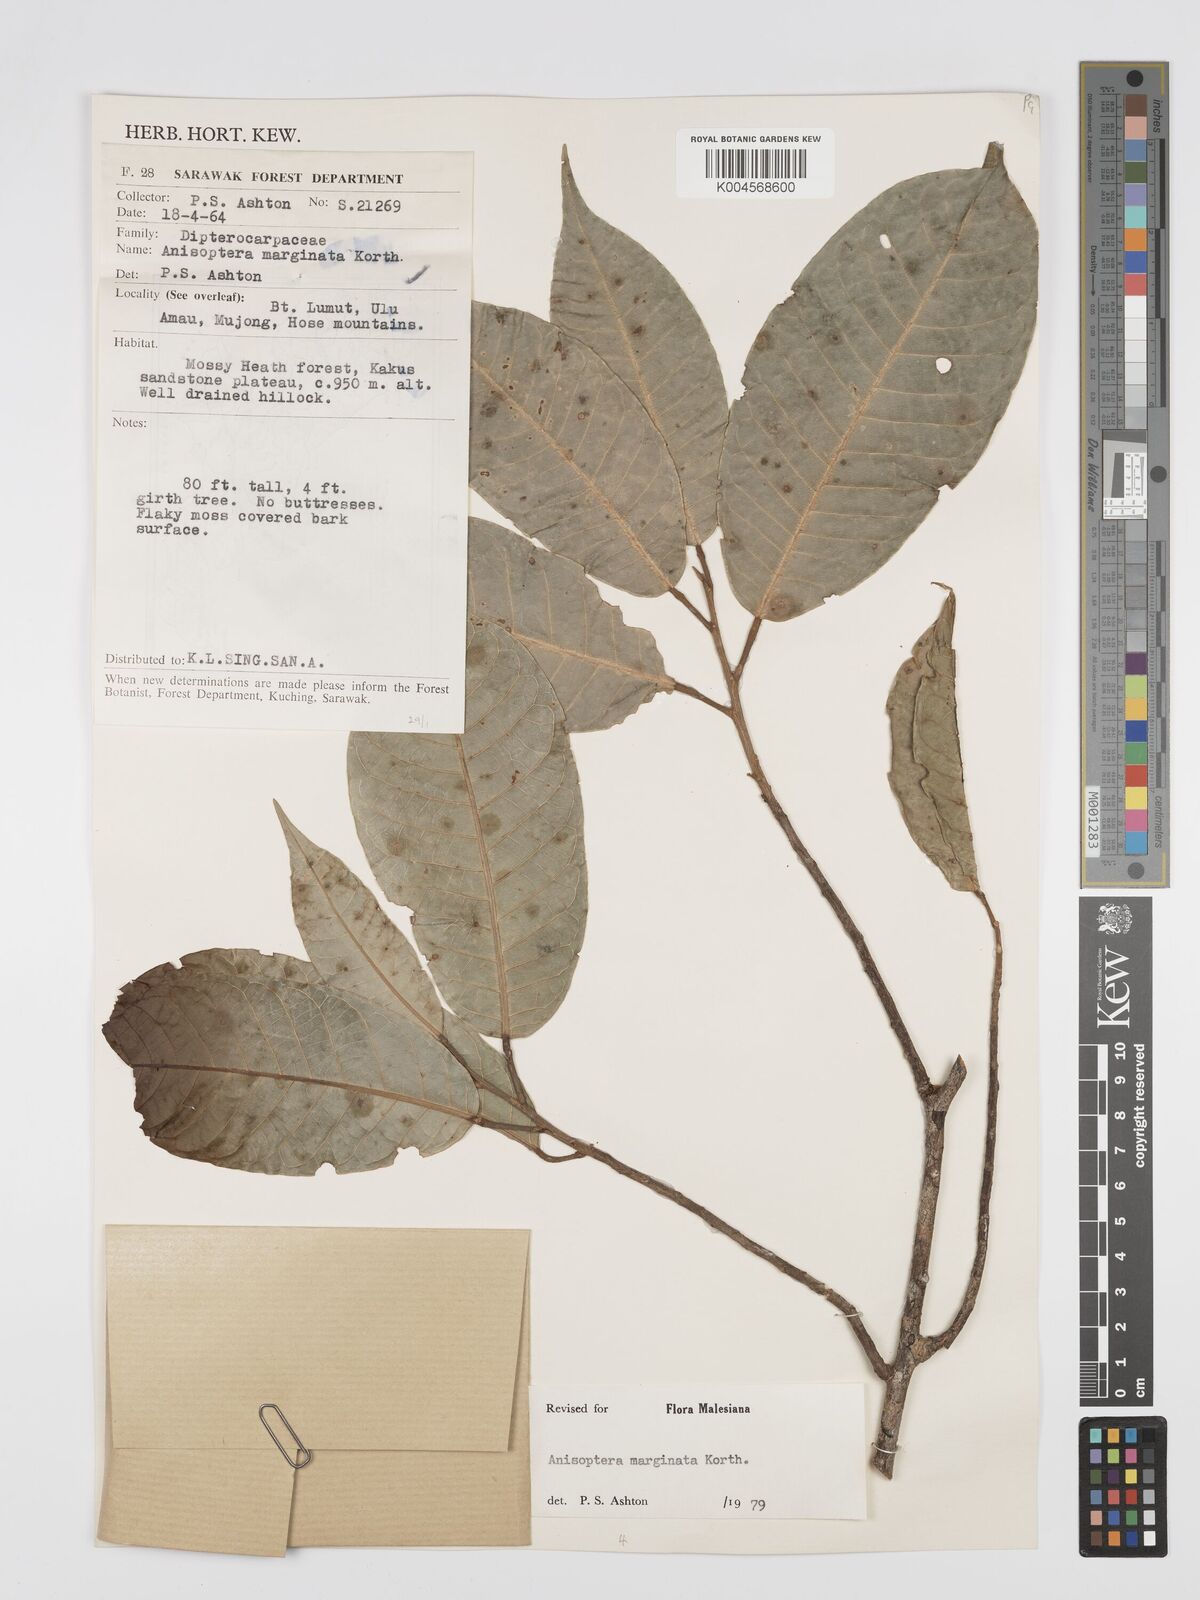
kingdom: Plantae
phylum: Tracheophyta
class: Magnoliopsida
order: Malvales
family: Dipterocarpaceae
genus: Anisoptera
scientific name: Anisoptera marginata
